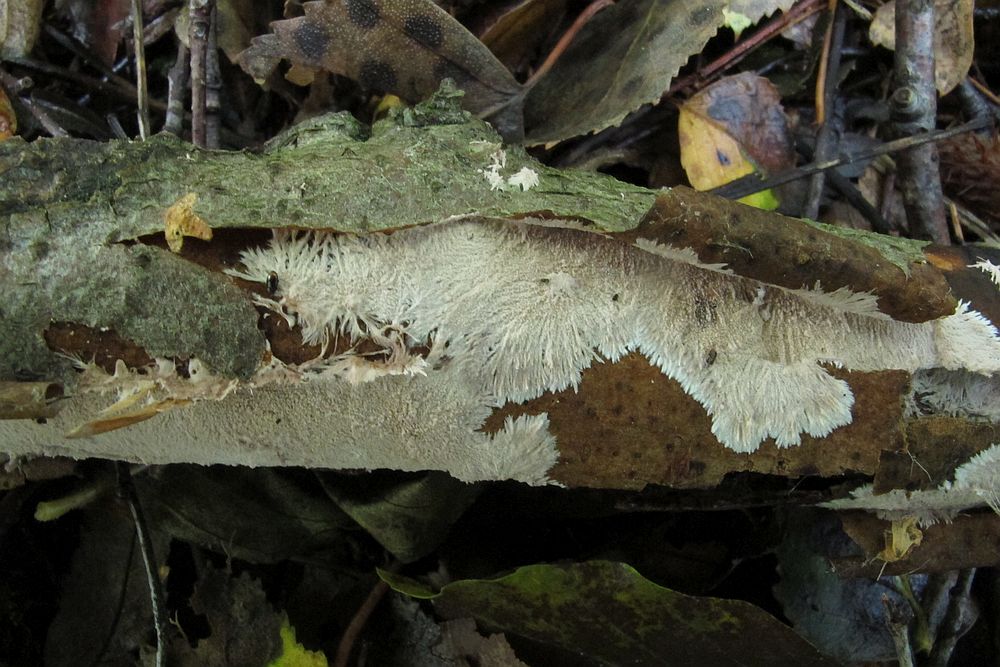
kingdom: Fungi
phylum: Basidiomycota
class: Agaricomycetes
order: Polyporales
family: Steccherinaceae
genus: Steccherinum
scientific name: Steccherinum fimbriatum
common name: trådet skønpig
